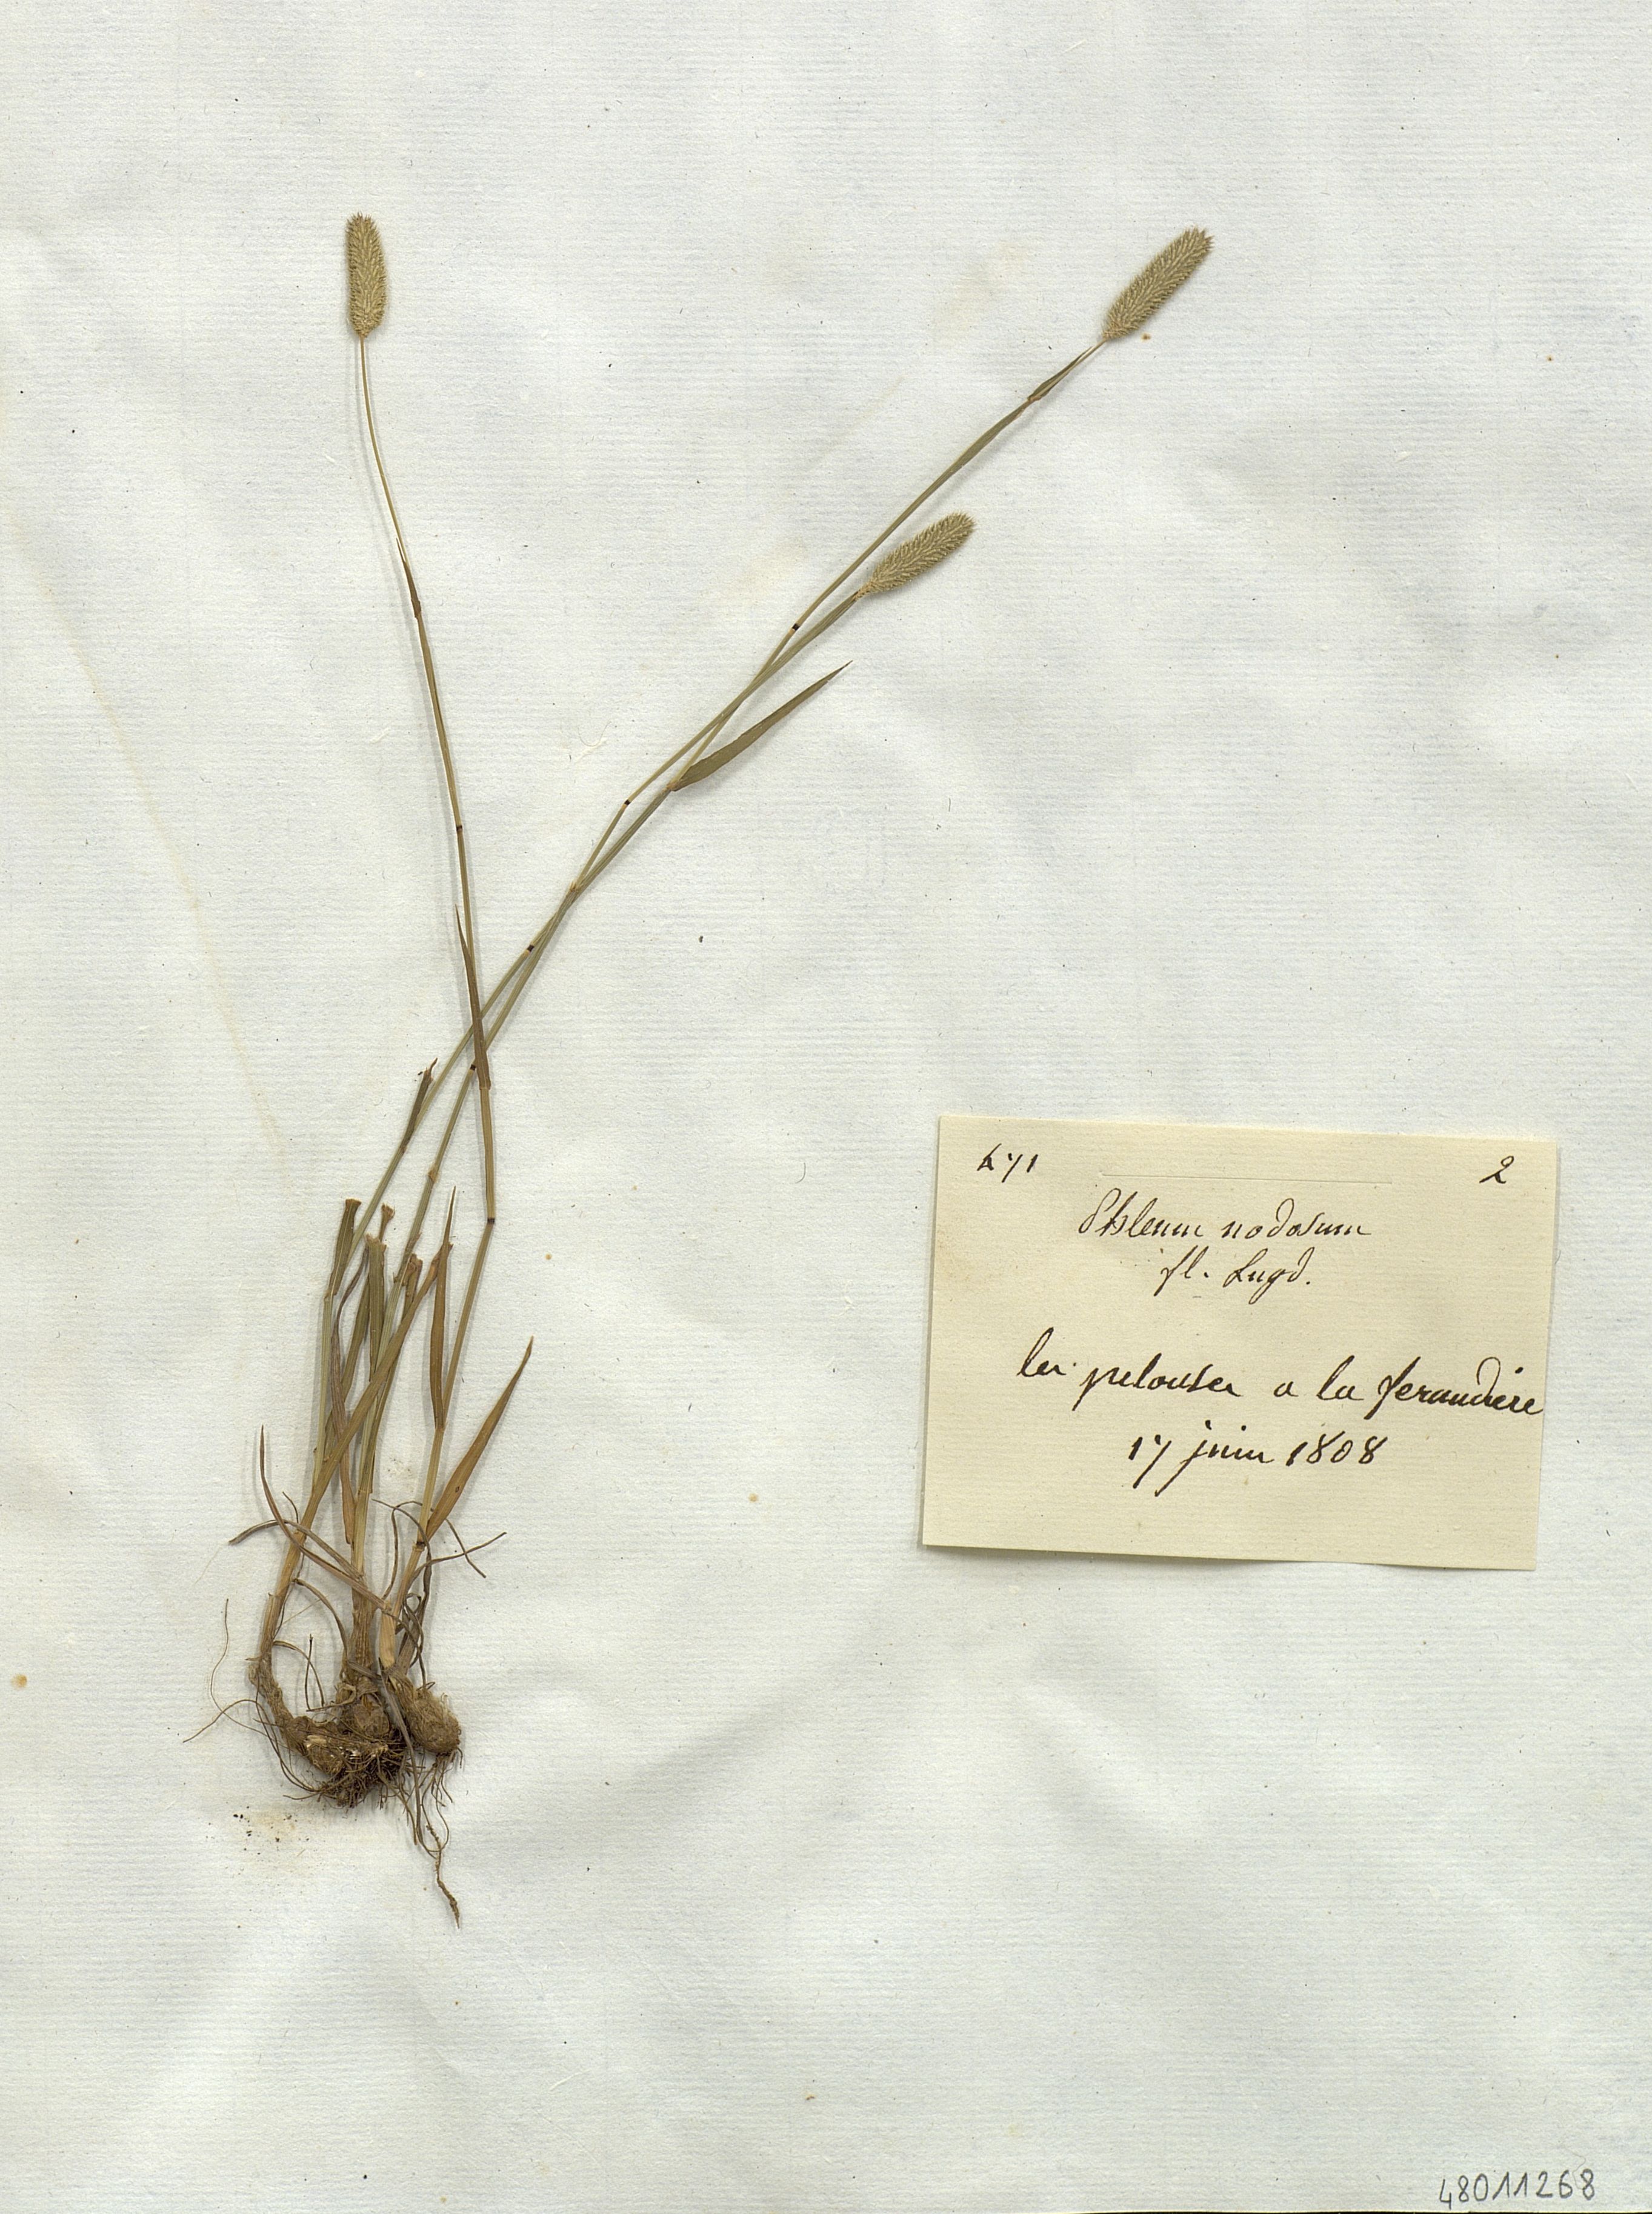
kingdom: Plantae
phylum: Tracheophyta
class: Liliopsida
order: Poales
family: Poaceae
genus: Phleum
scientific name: Phleum pratense
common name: Timothy grass
